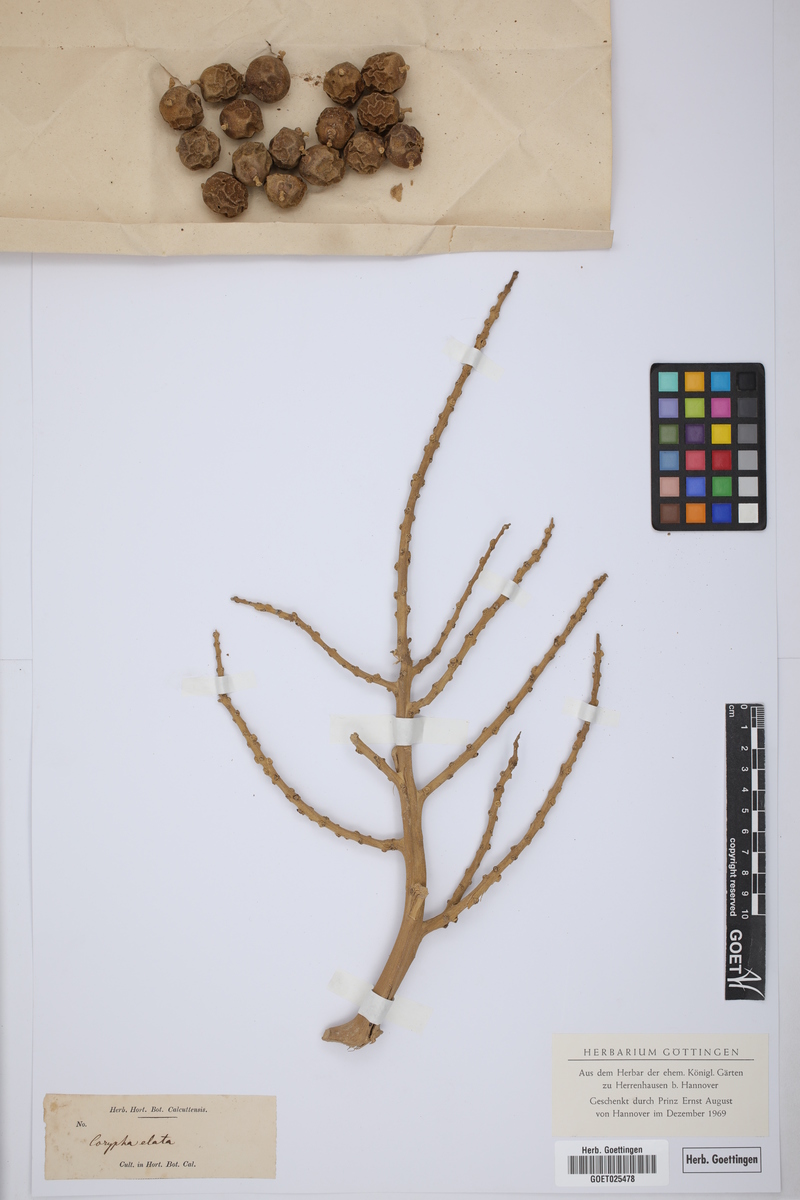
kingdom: Plantae
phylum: Tracheophyta
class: Liliopsida
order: Arecales
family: Arecaceae
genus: Corypha
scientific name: Corypha utan
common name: Buri palm
